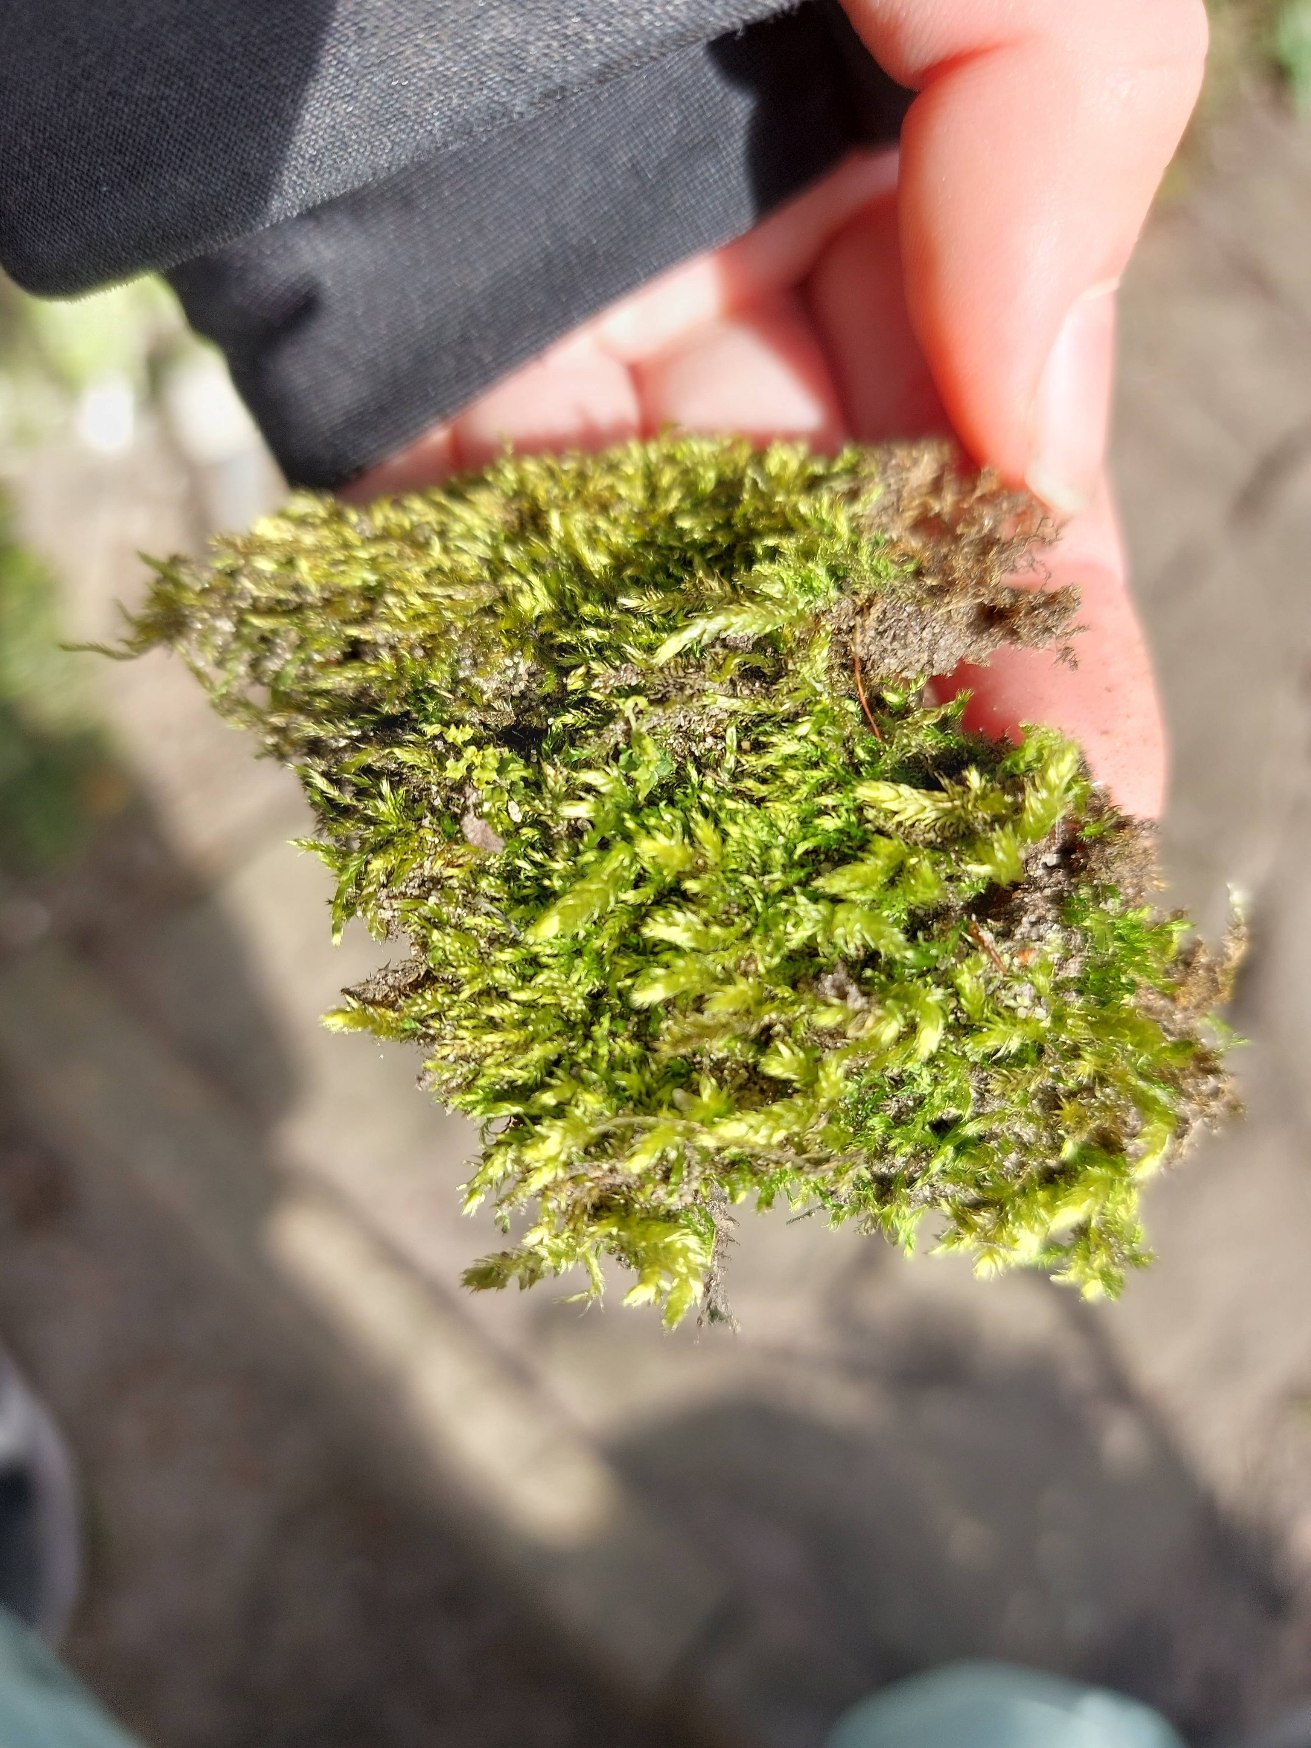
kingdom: Plantae
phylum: Bryophyta
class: Bryopsida
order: Hypnales
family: Brachytheciaceae
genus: Brachythecium
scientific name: Brachythecium rutabulum
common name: Almindelig kortkapsel
